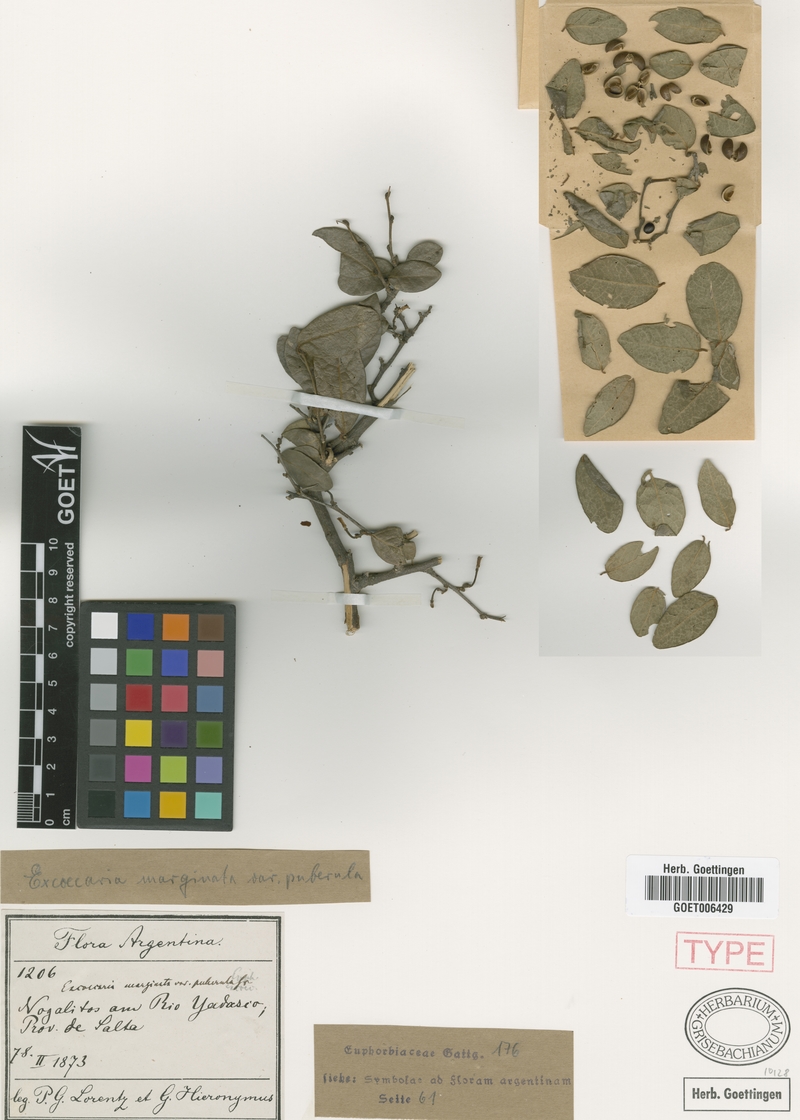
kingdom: Plantae
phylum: Tracheophyta
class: Magnoliopsida
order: Malpighiales
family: Euphorbiaceae
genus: Sapium
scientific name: Sapium glandulosum
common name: Milktree
